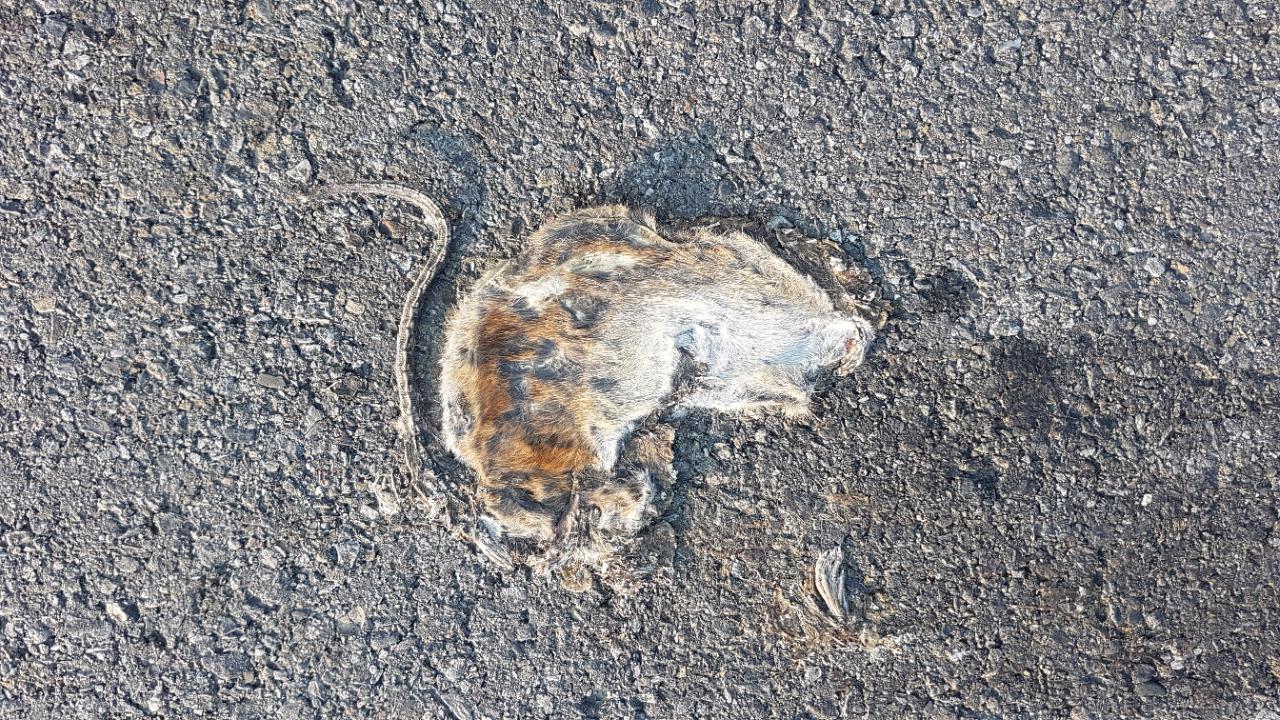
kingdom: Animalia
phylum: Chordata
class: Mammalia
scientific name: Mammalia
